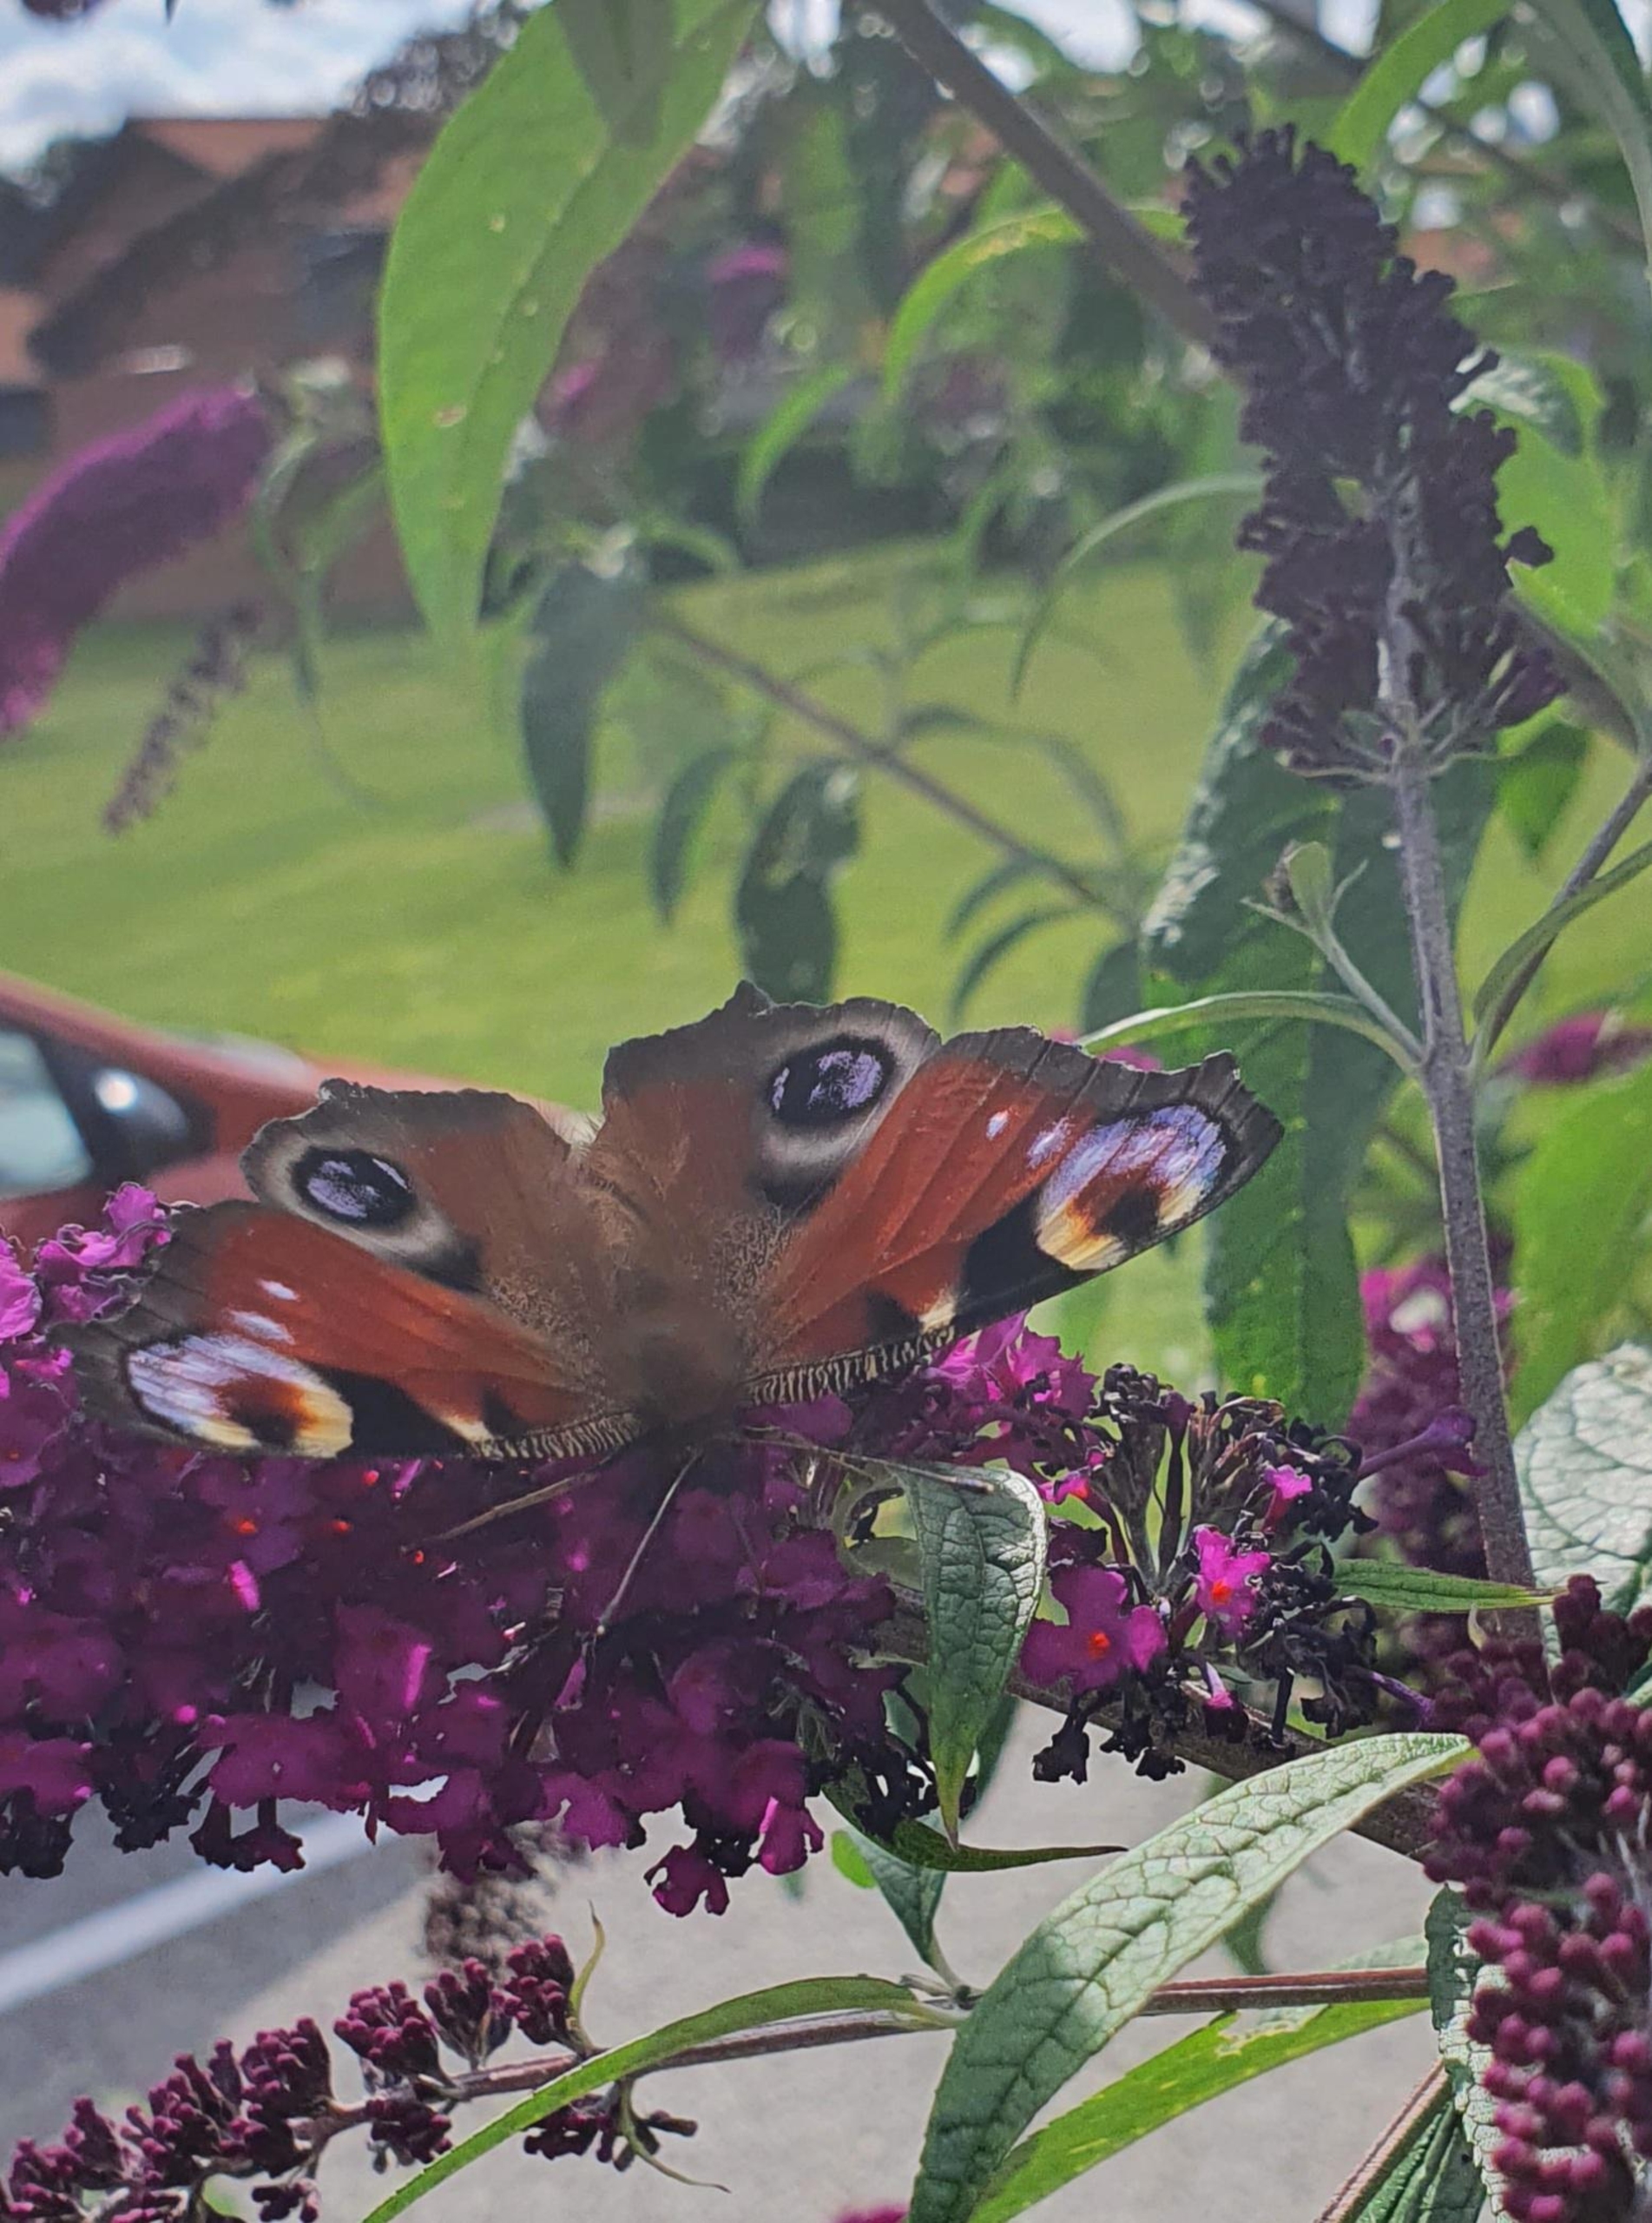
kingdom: Animalia
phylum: Arthropoda
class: Insecta
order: Lepidoptera
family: Nymphalidae
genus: Aglais
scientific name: Aglais io
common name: Dagpåfugleøje
